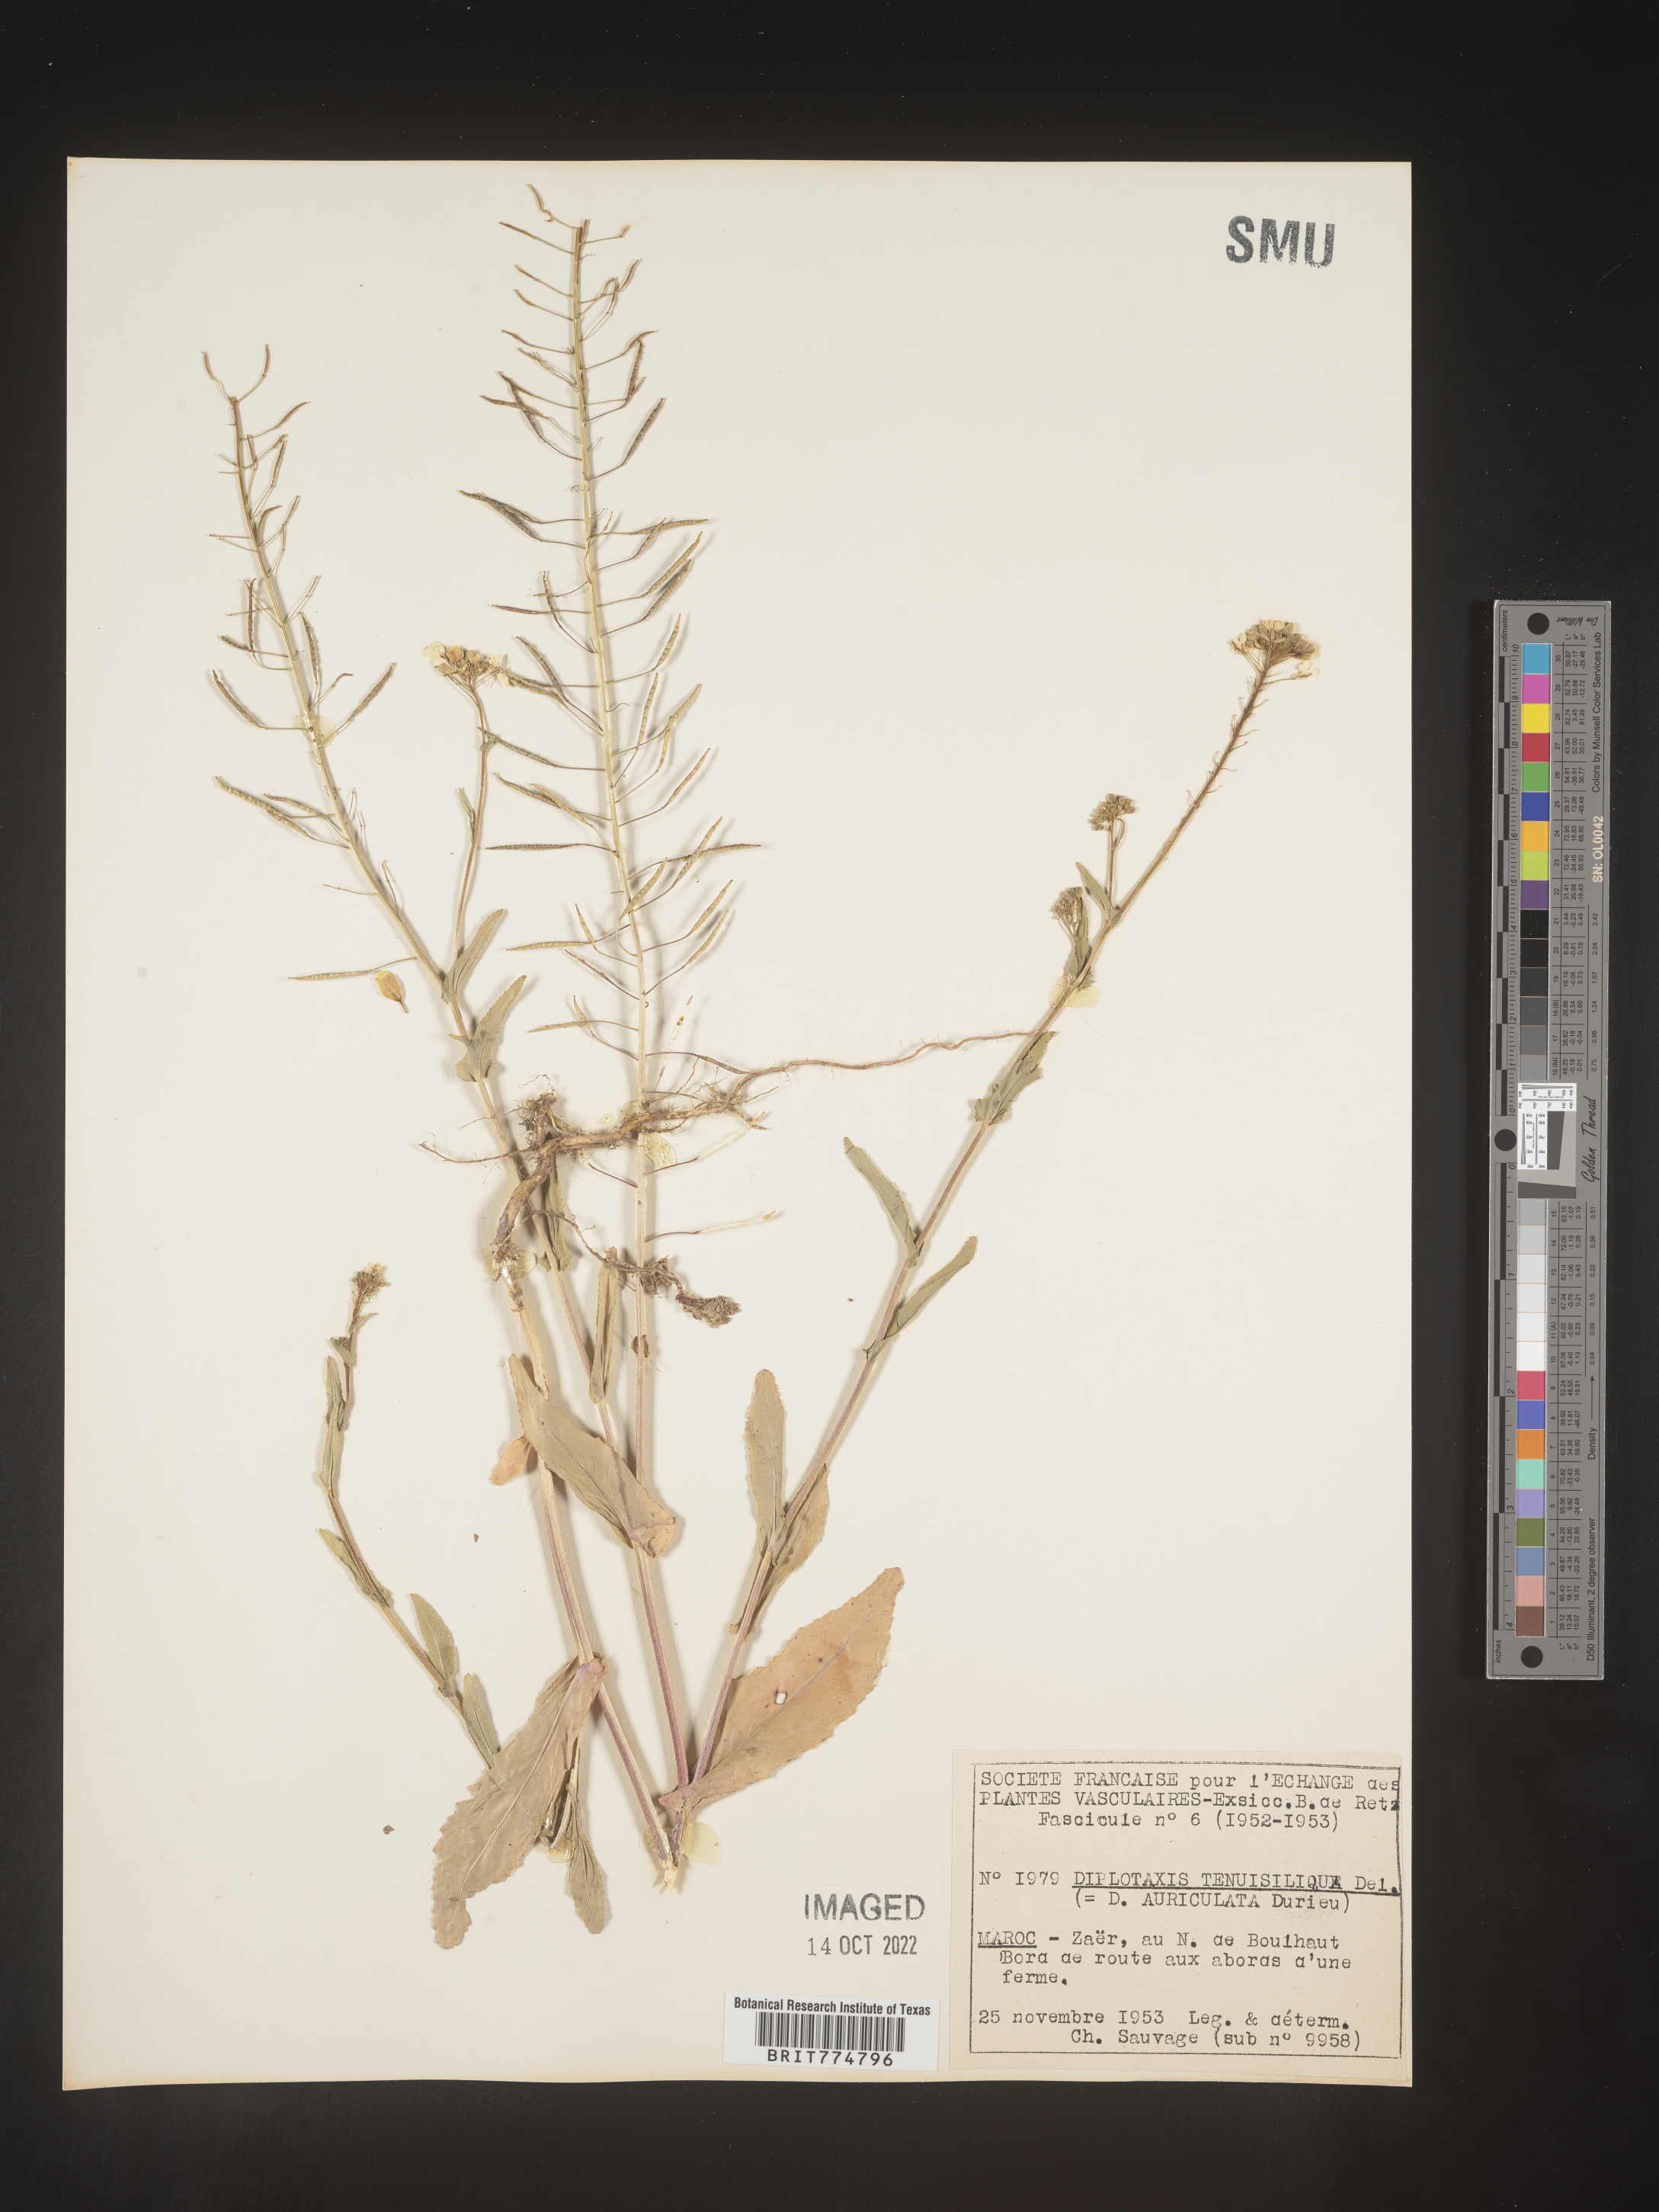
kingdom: Plantae
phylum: Tracheophyta
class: Magnoliopsida
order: Brassicales
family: Brassicaceae
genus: Diplotaxis
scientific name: Diplotaxis
